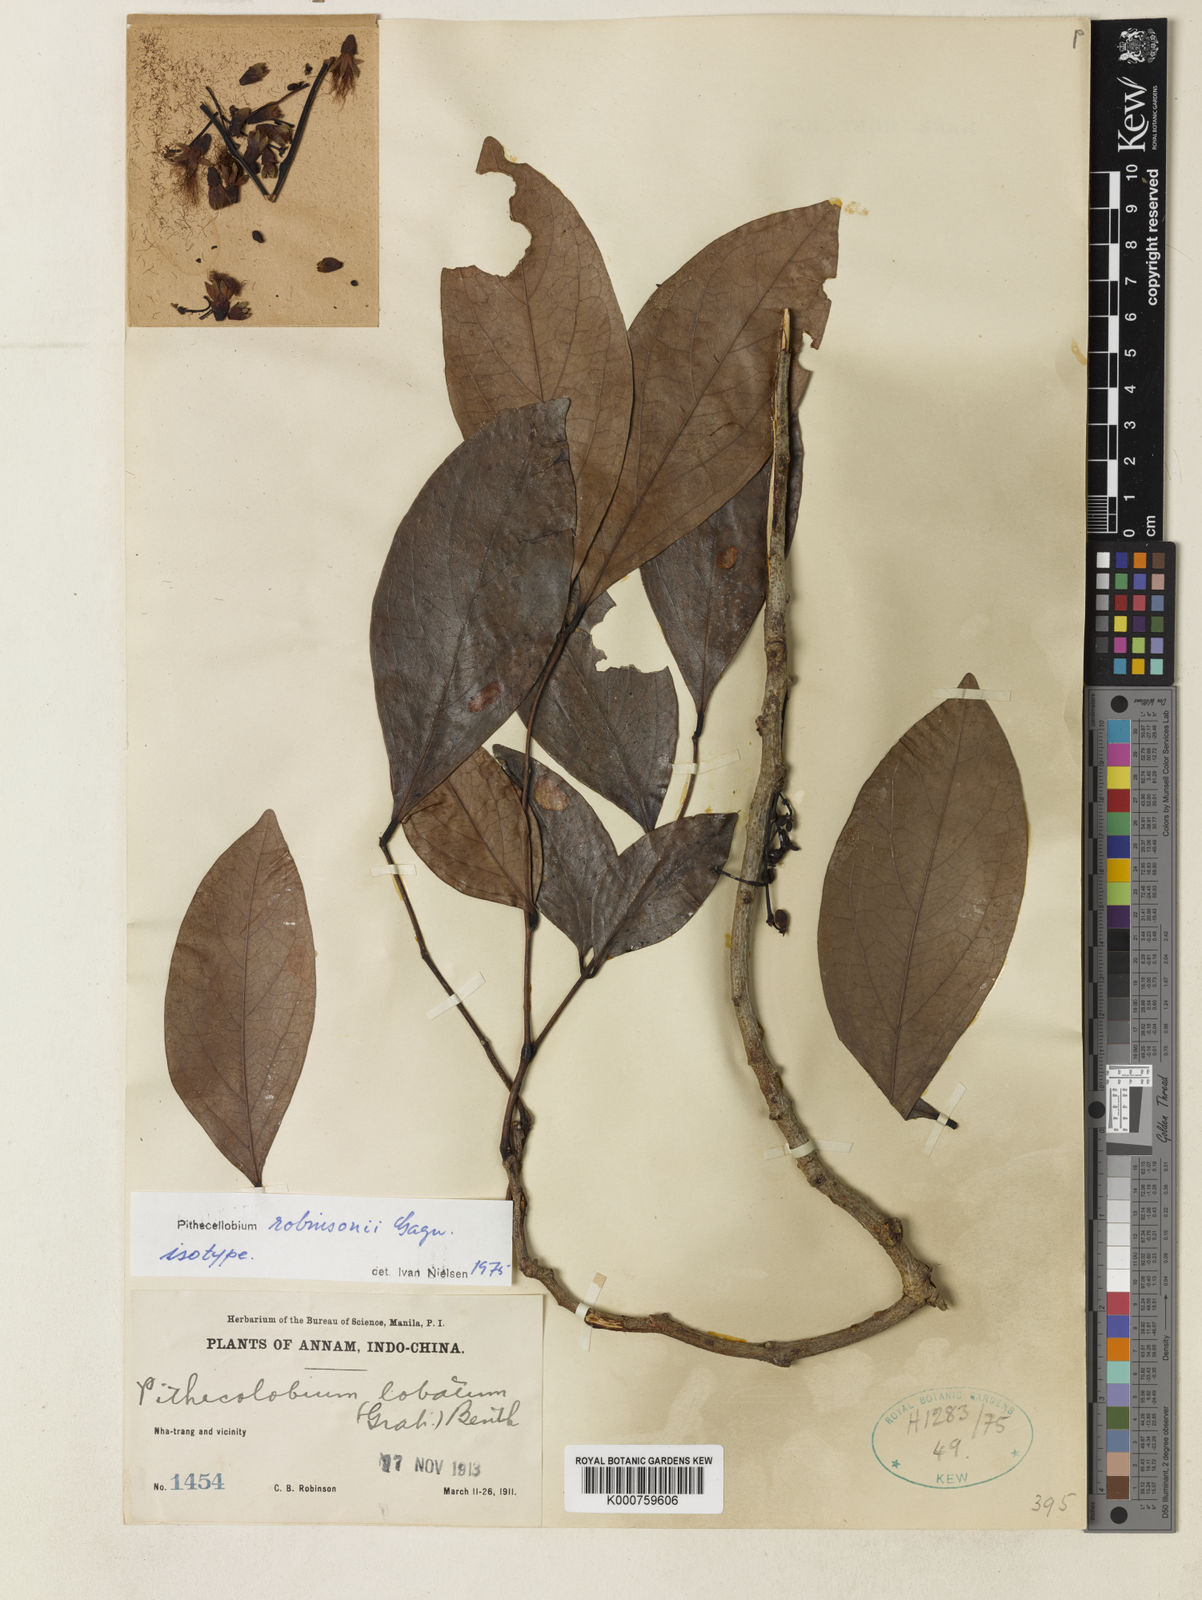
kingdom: Plantae
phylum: Tracheophyta
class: Magnoliopsida
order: Fabales
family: Fabaceae
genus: Archidendron
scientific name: Archidendron robinsonii
